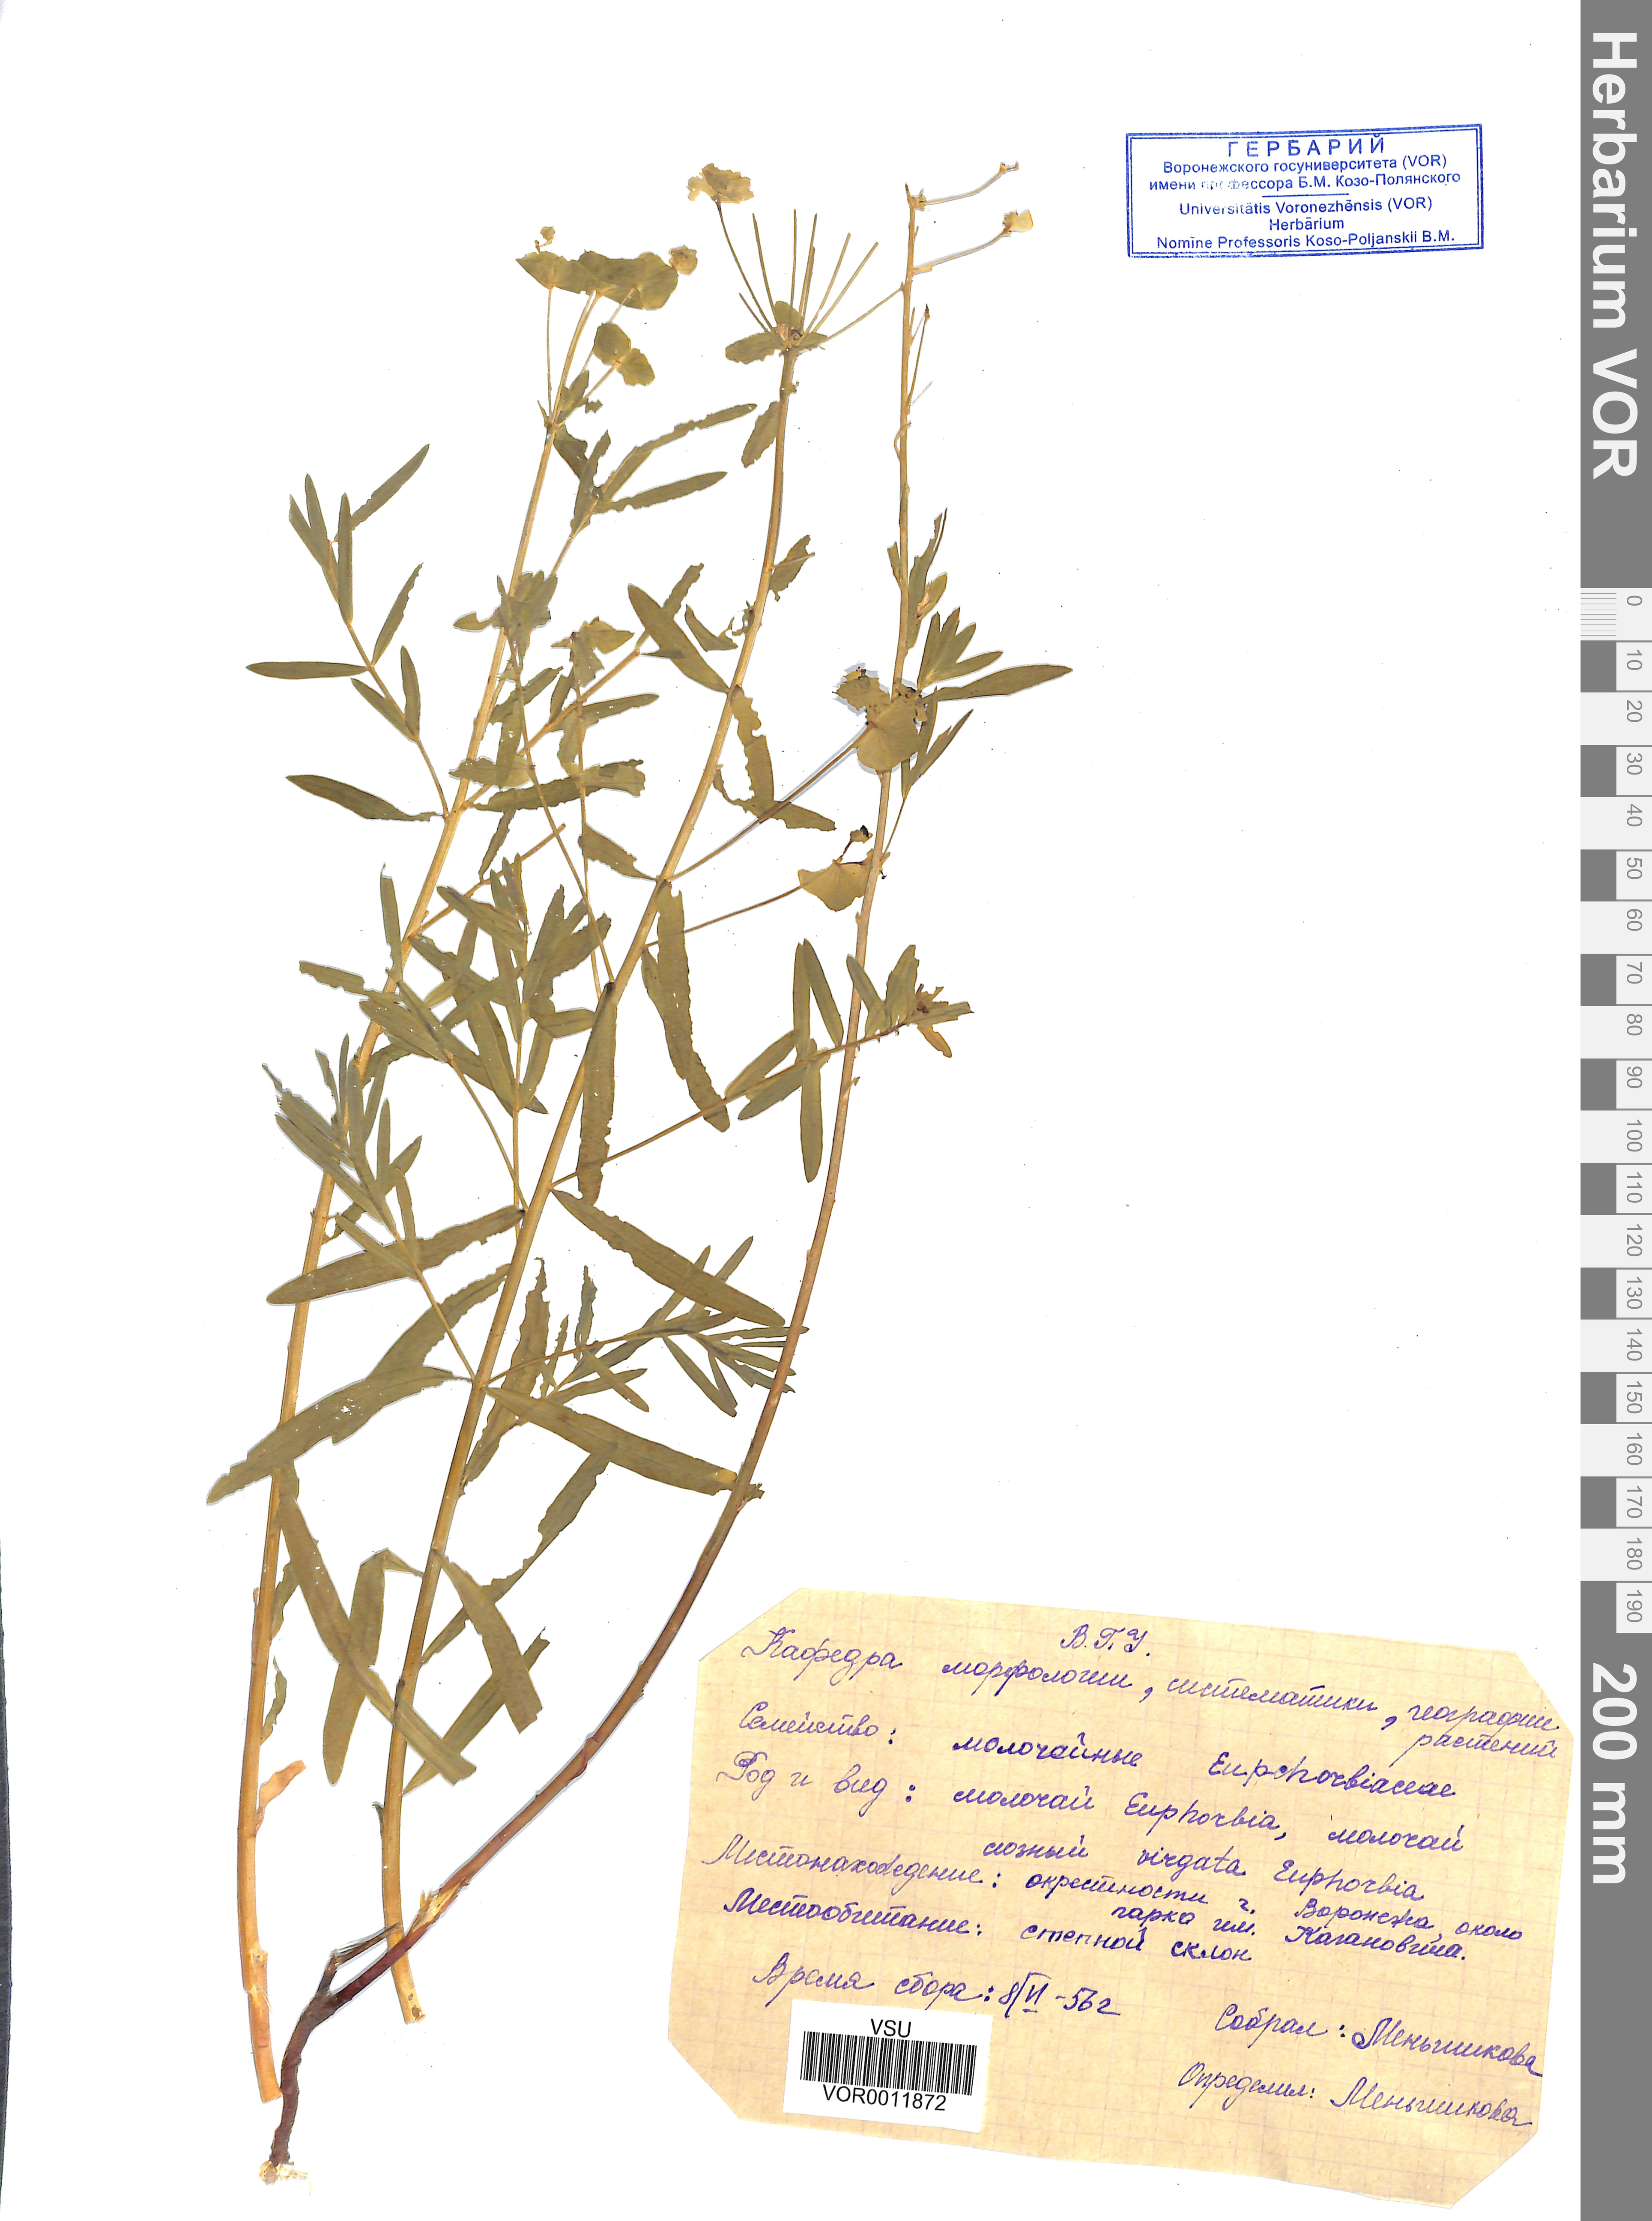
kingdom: Plantae
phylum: Tracheophyta
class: Magnoliopsida
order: Malpighiales
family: Euphorbiaceae
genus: Euphorbia
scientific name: Euphorbia virgata
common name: Leafy spurge
